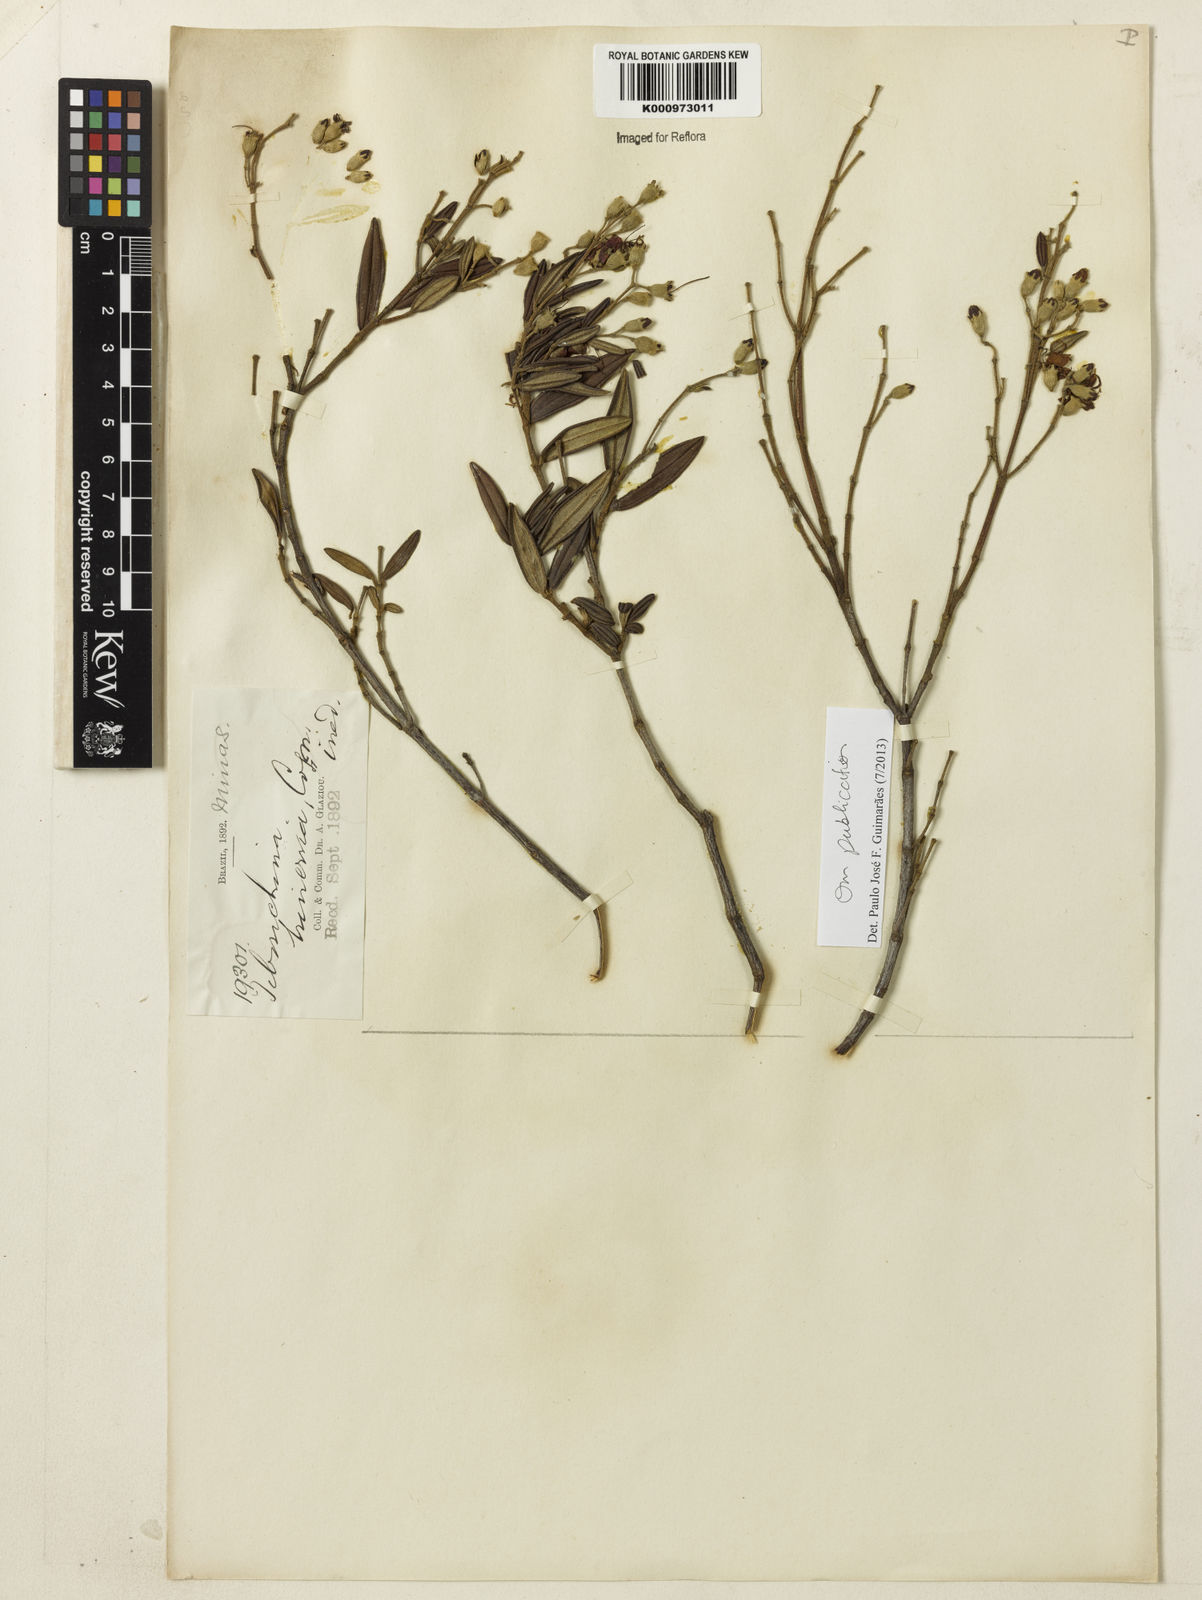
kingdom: Plantae
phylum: Tracheophyta
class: Magnoliopsida
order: Myrtales
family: Melastomataceae
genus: Tibouchina
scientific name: Tibouchina
